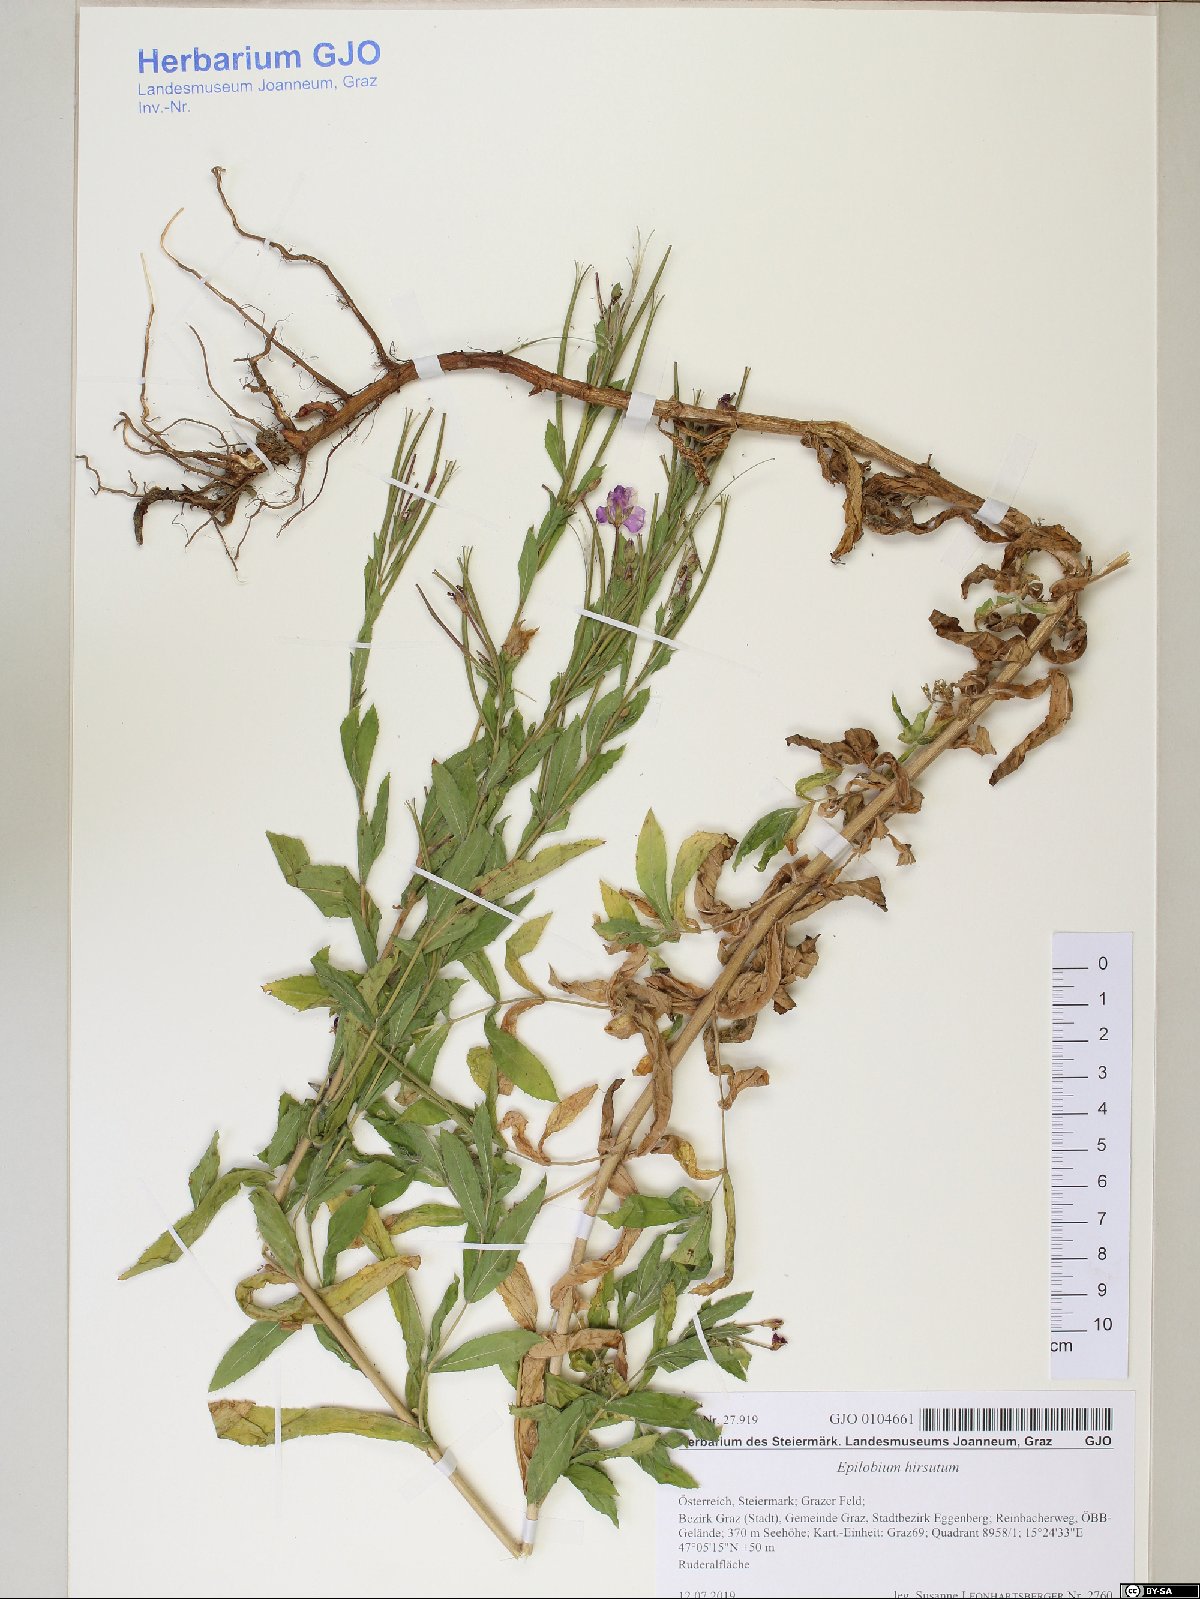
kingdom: Plantae
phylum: Tracheophyta
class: Magnoliopsida
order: Myrtales
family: Onagraceae
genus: Epilobium
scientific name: Epilobium hirsutum
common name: Great willowherb
